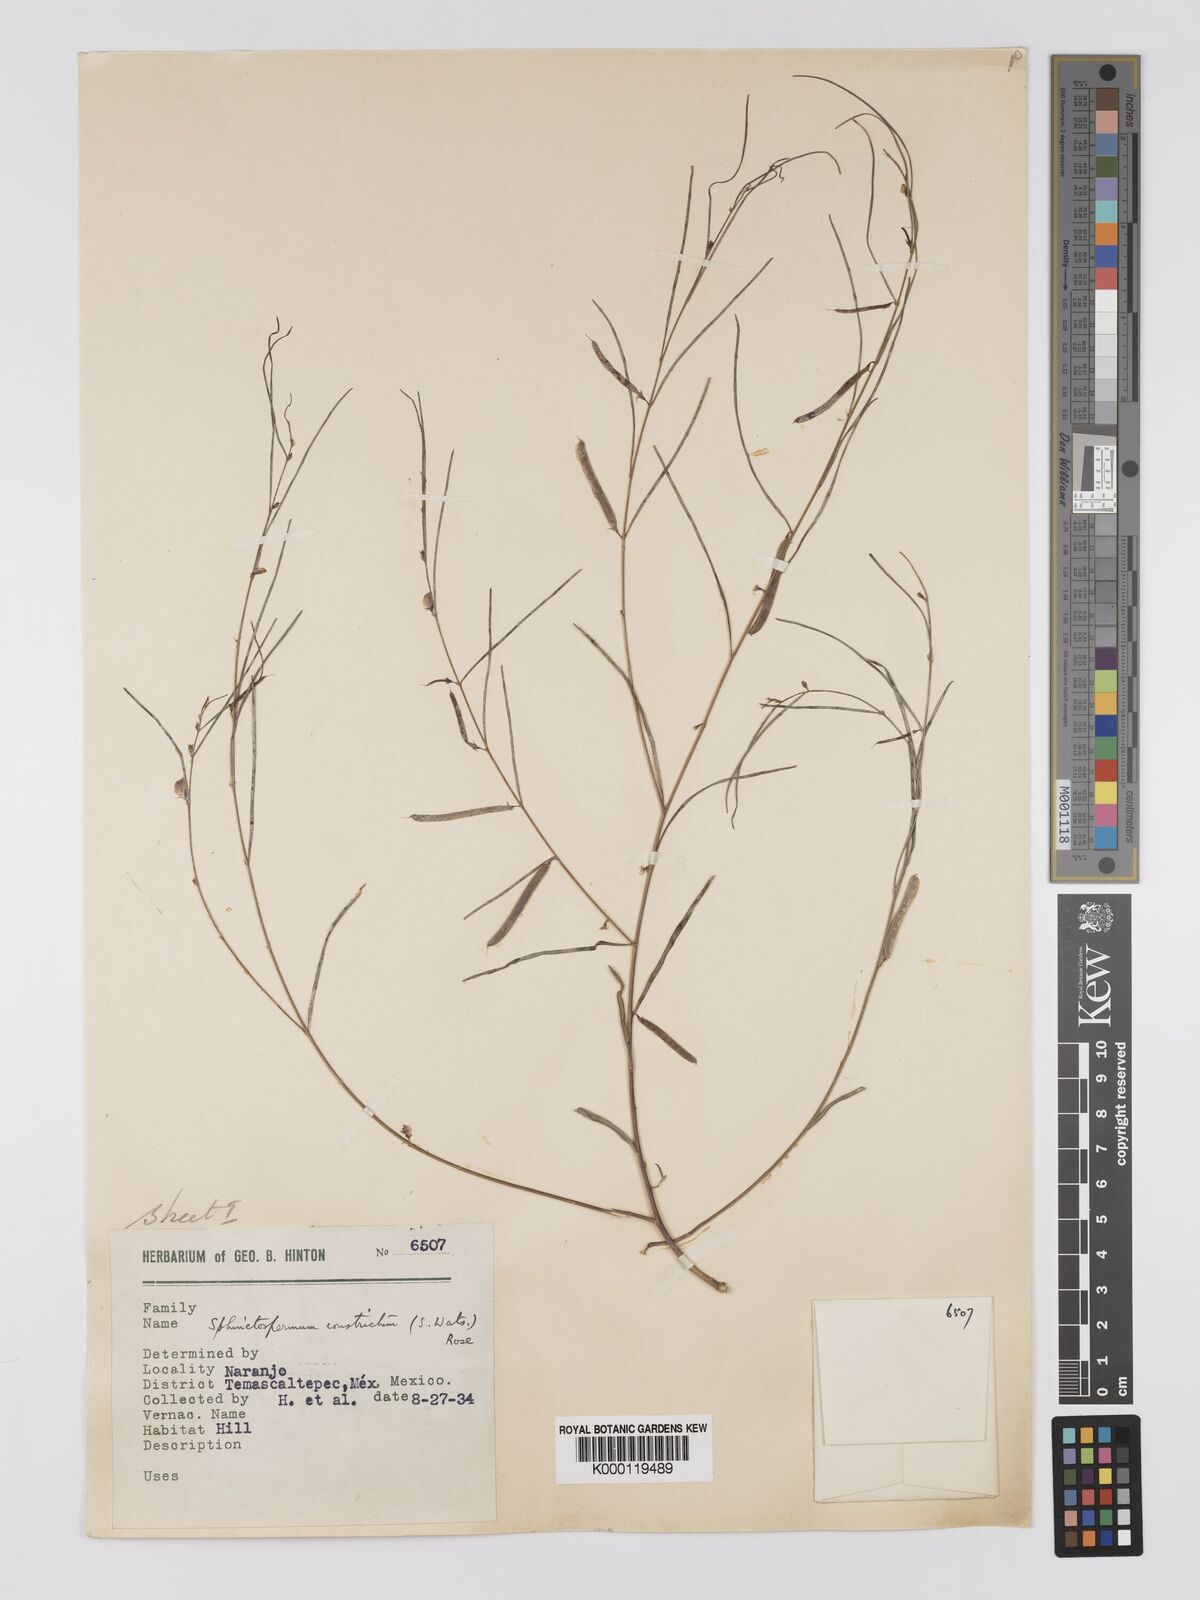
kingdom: Plantae
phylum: Tracheophyta
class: Magnoliopsida
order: Fabales
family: Fabaceae
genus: Sphinctospermum
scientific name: Sphinctospermum constrictum
